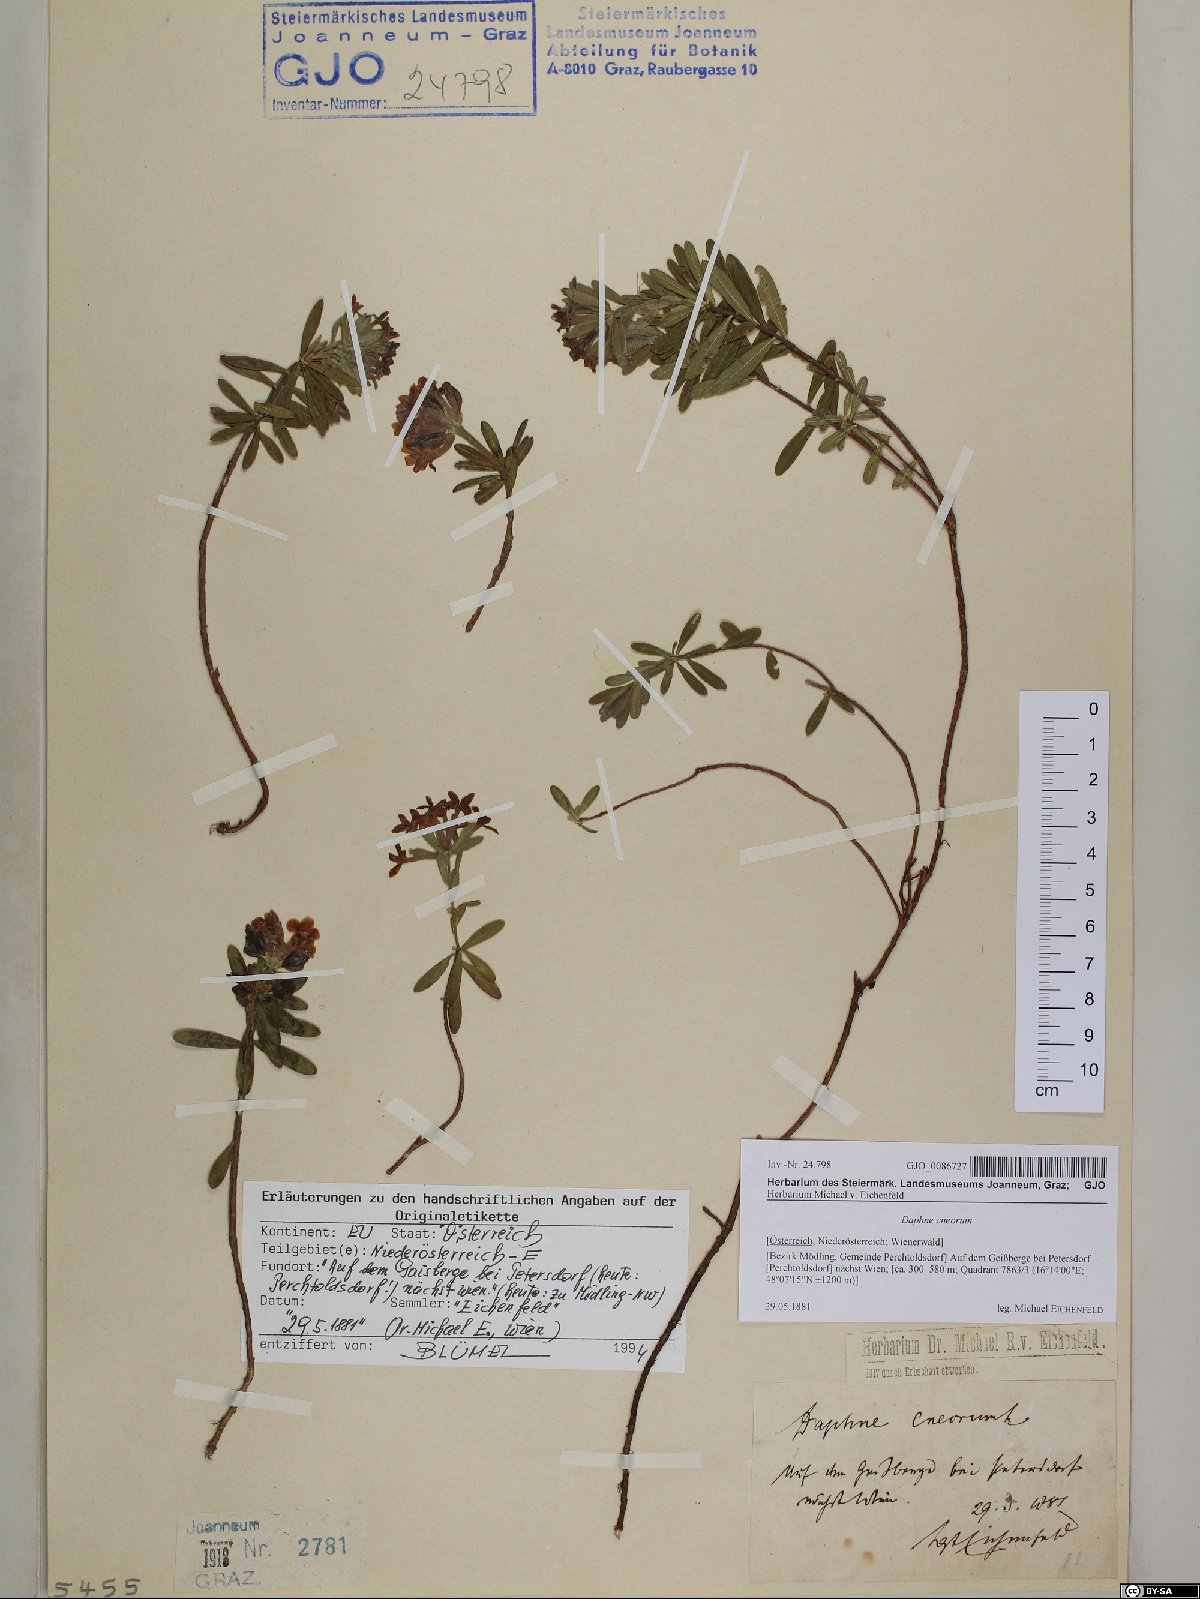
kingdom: Plantae
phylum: Tracheophyta
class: Magnoliopsida
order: Malvales
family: Thymelaeaceae
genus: Daphne
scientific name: Daphne cneorum
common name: Garland-flower
